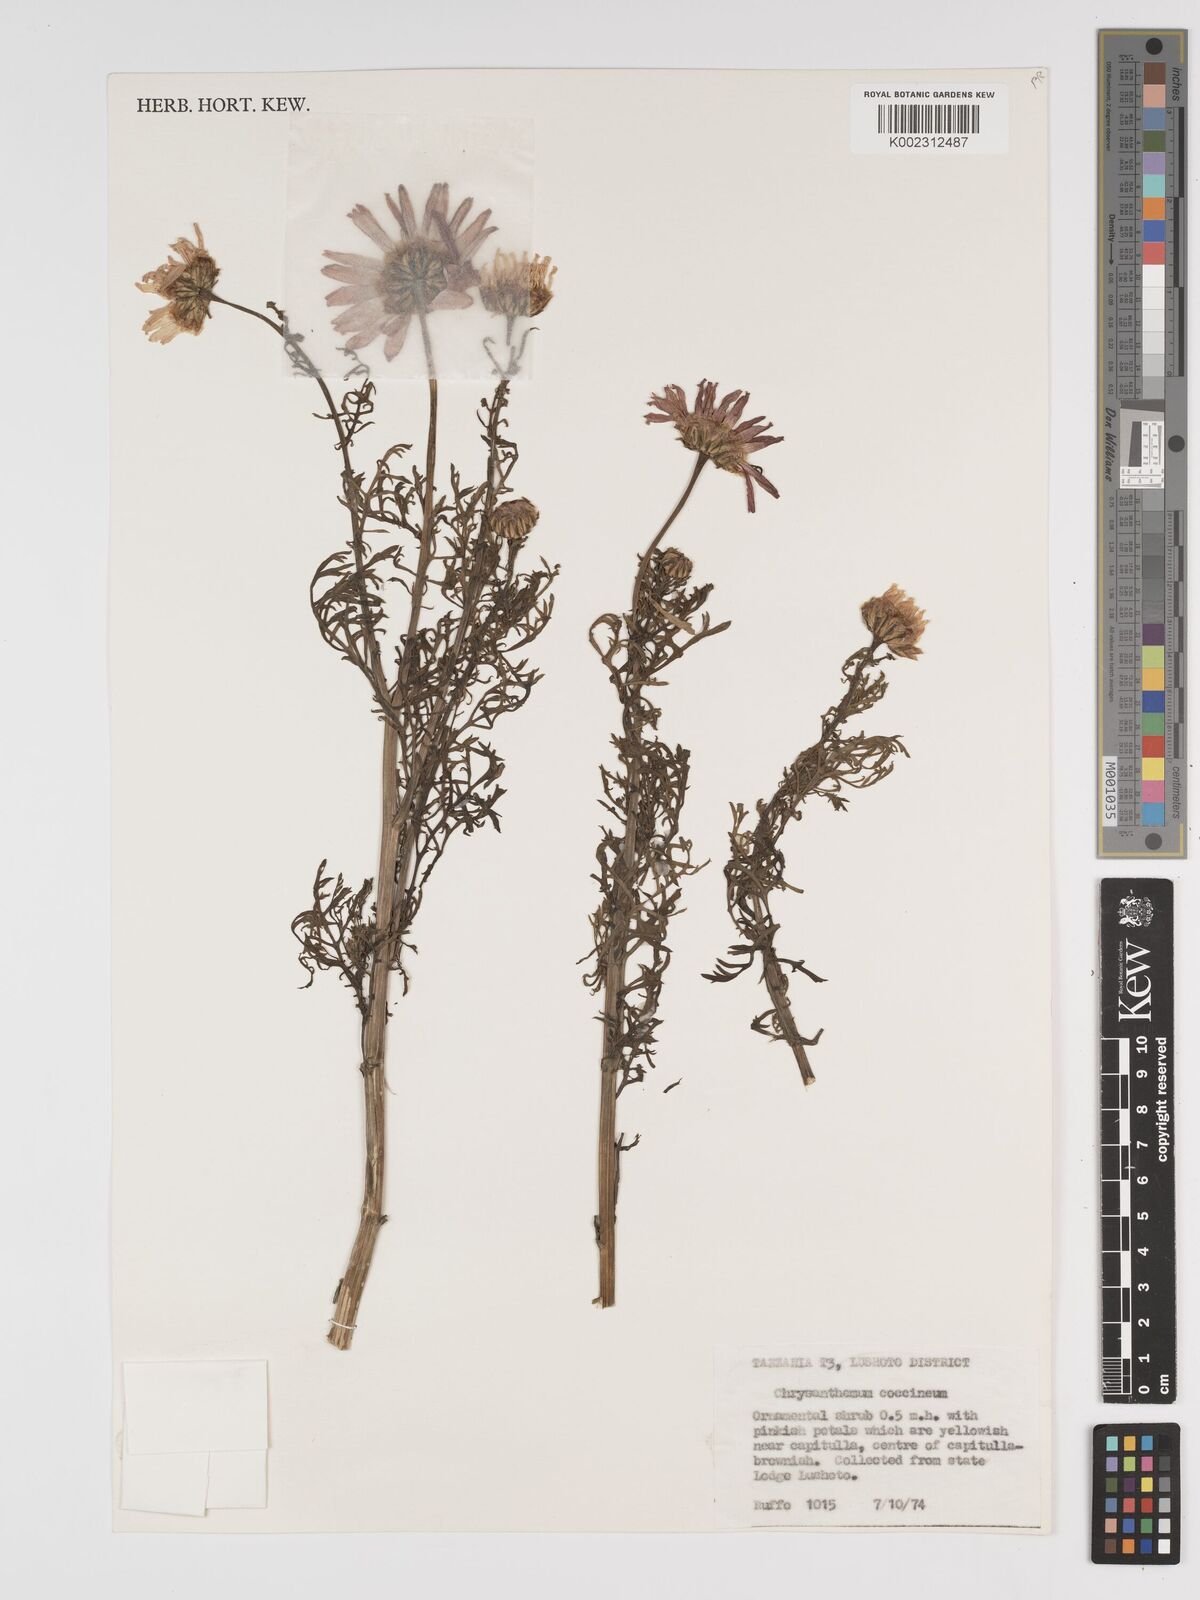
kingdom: Plantae
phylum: Tracheophyta
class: Magnoliopsida
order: Asterales
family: Asteraceae
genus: Tanacetum
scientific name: Tanacetum coccineum
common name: Pyrethum daisy
